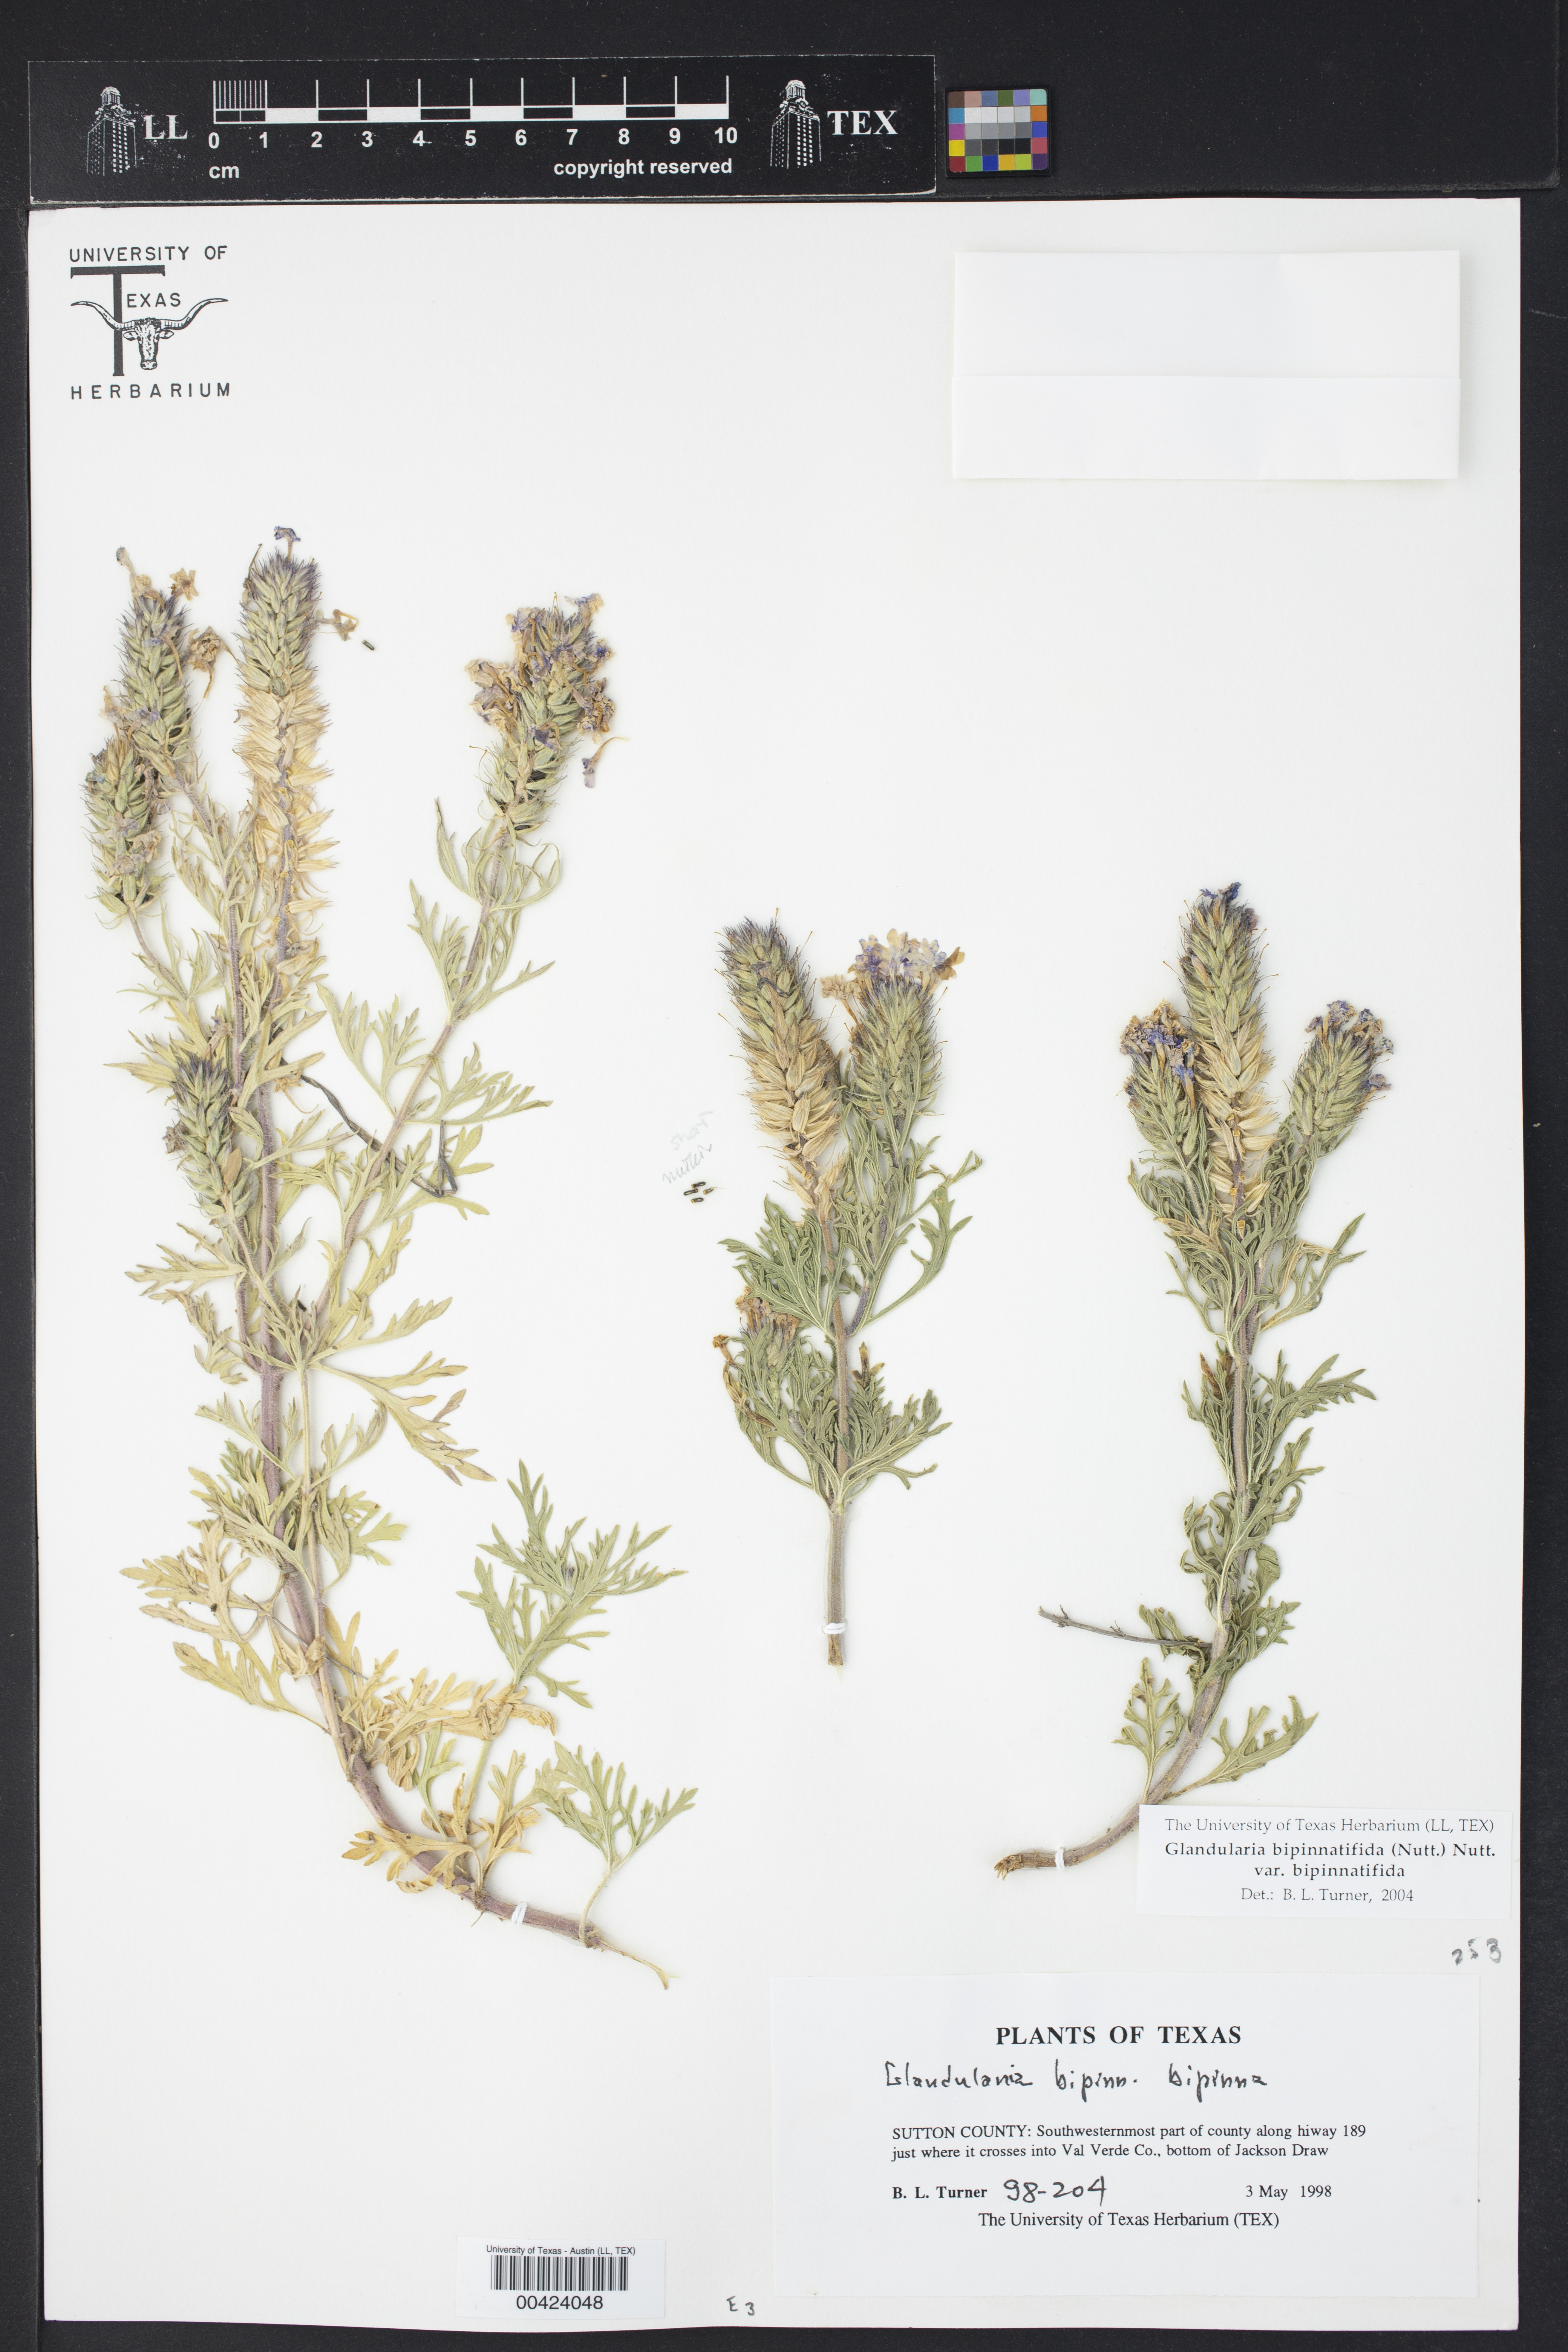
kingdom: Plantae
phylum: Tracheophyta
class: Magnoliopsida
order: Lamiales
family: Verbenaceae
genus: Verbena
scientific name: Verbena bipinnatifida
